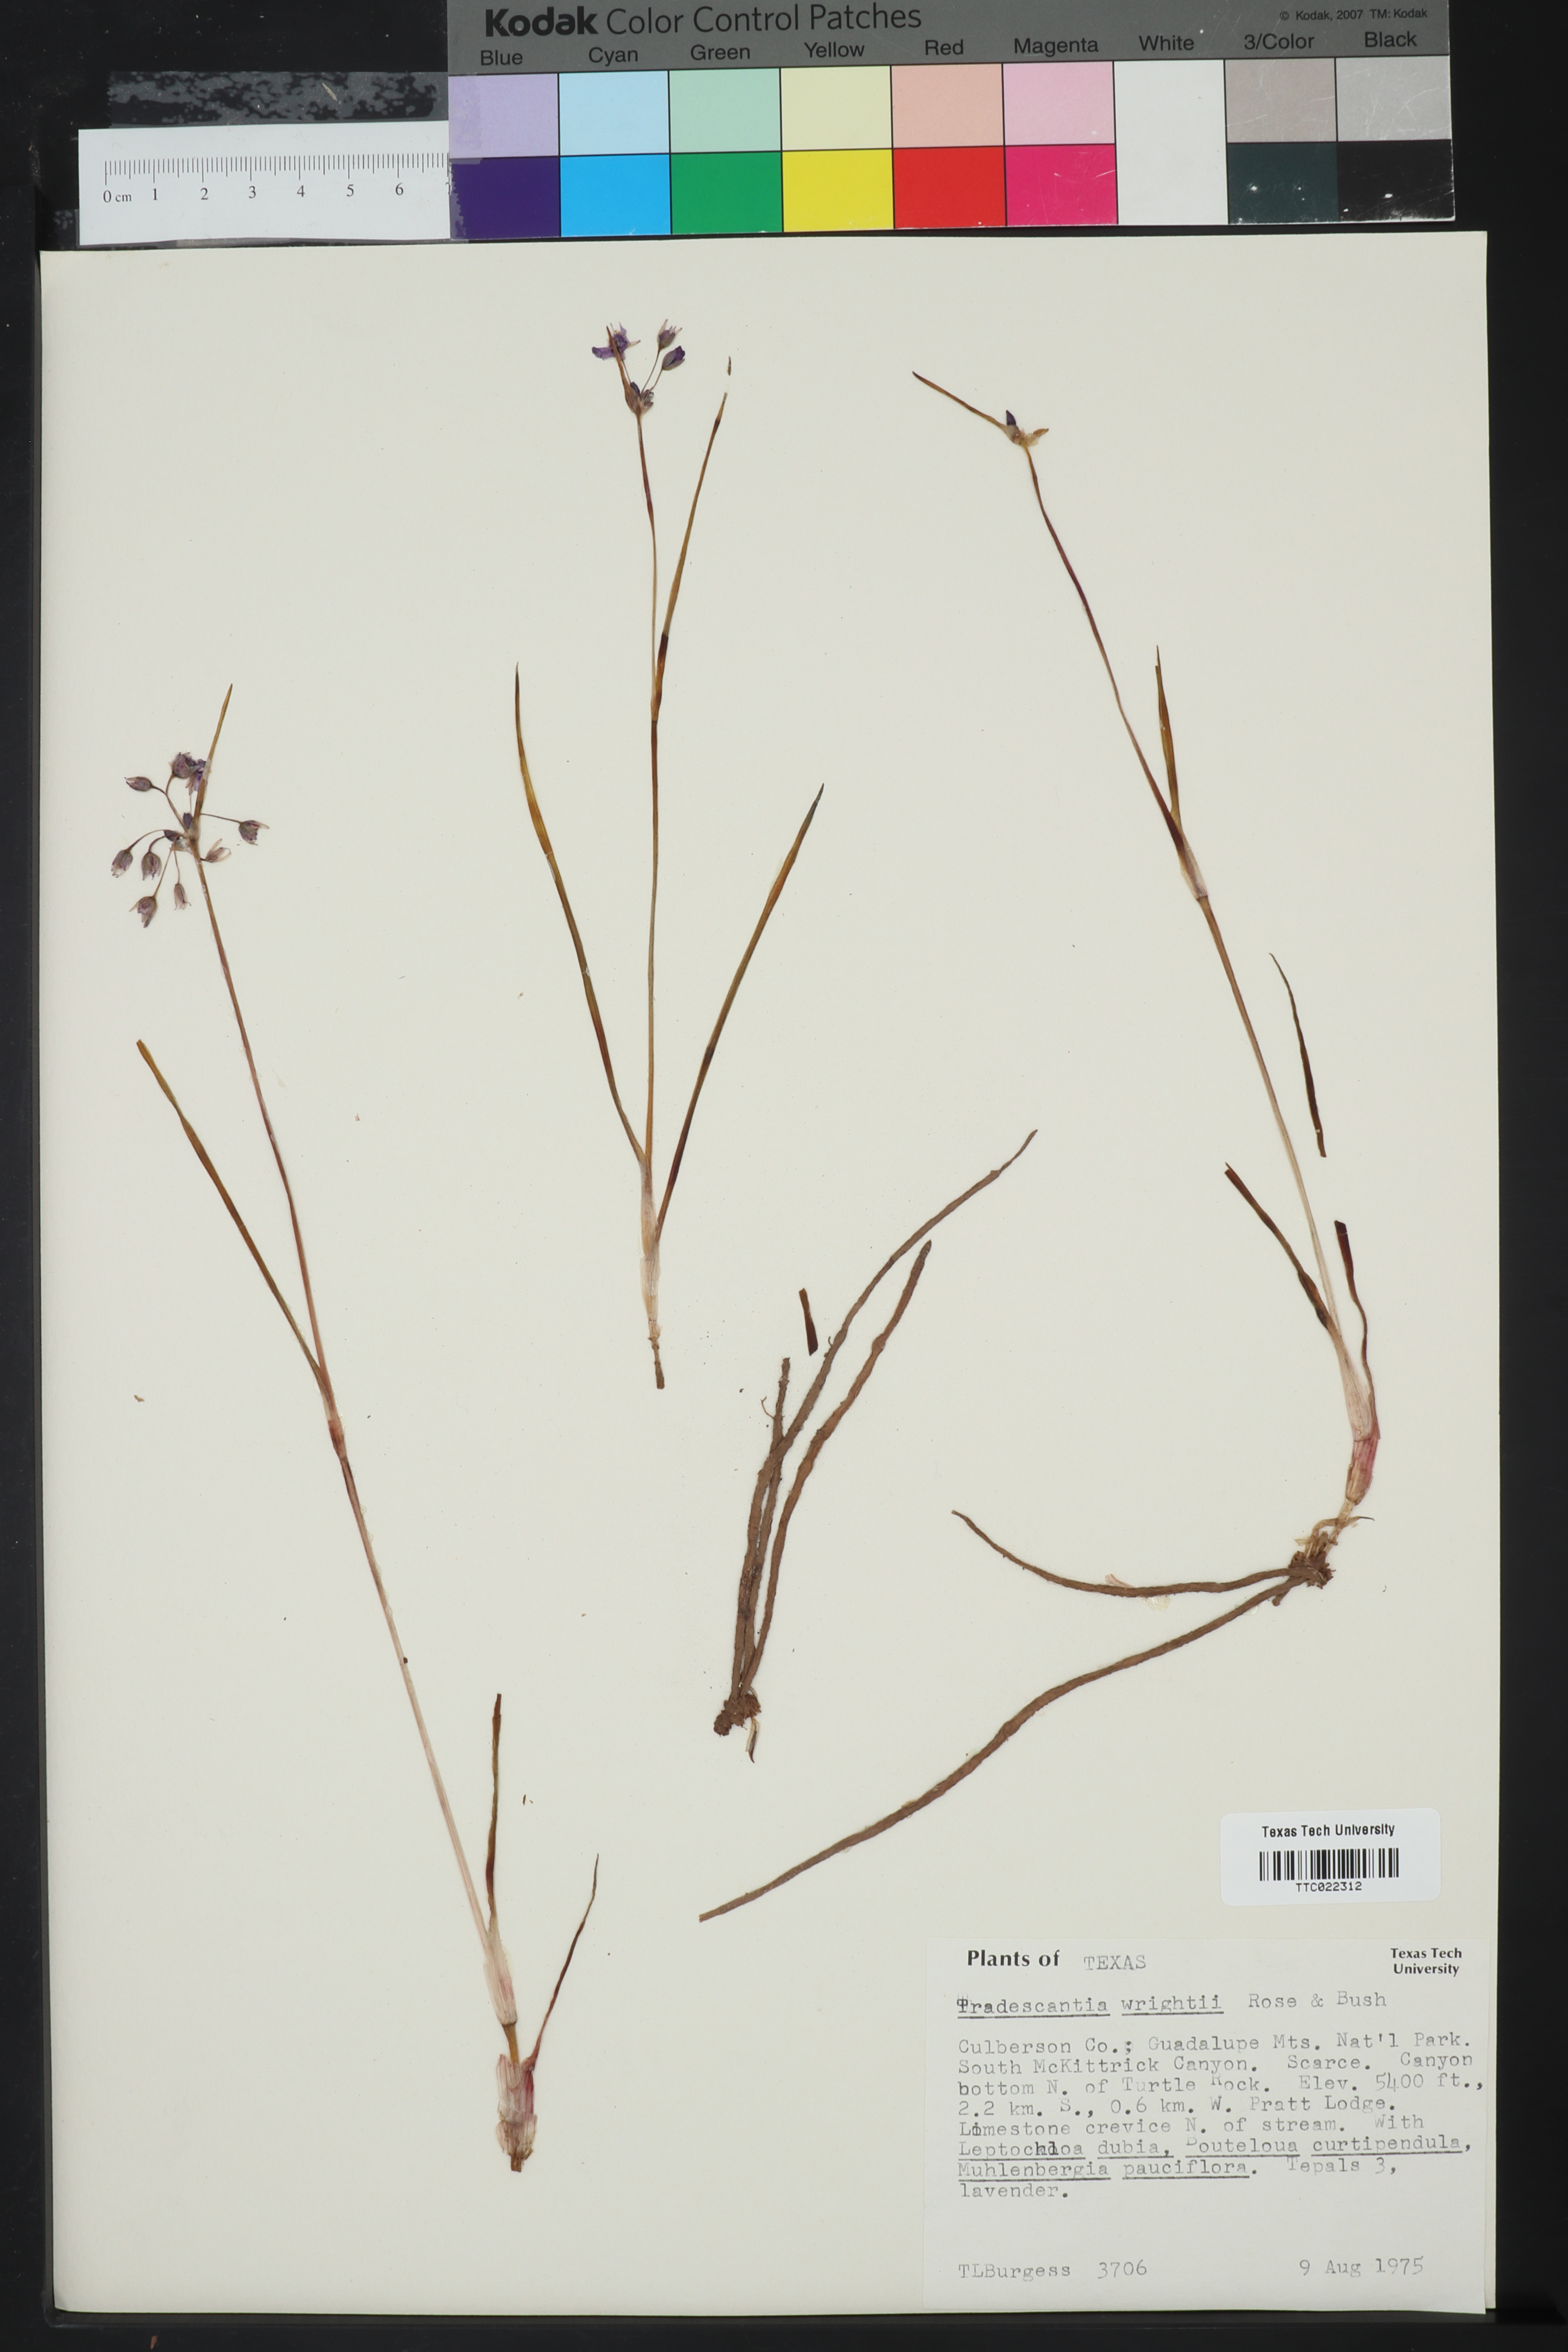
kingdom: Plantae
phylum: Tracheophyta
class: Liliopsida
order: Commelinales
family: Commelinaceae
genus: Tradescantia
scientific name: Tradescantia wrightii
